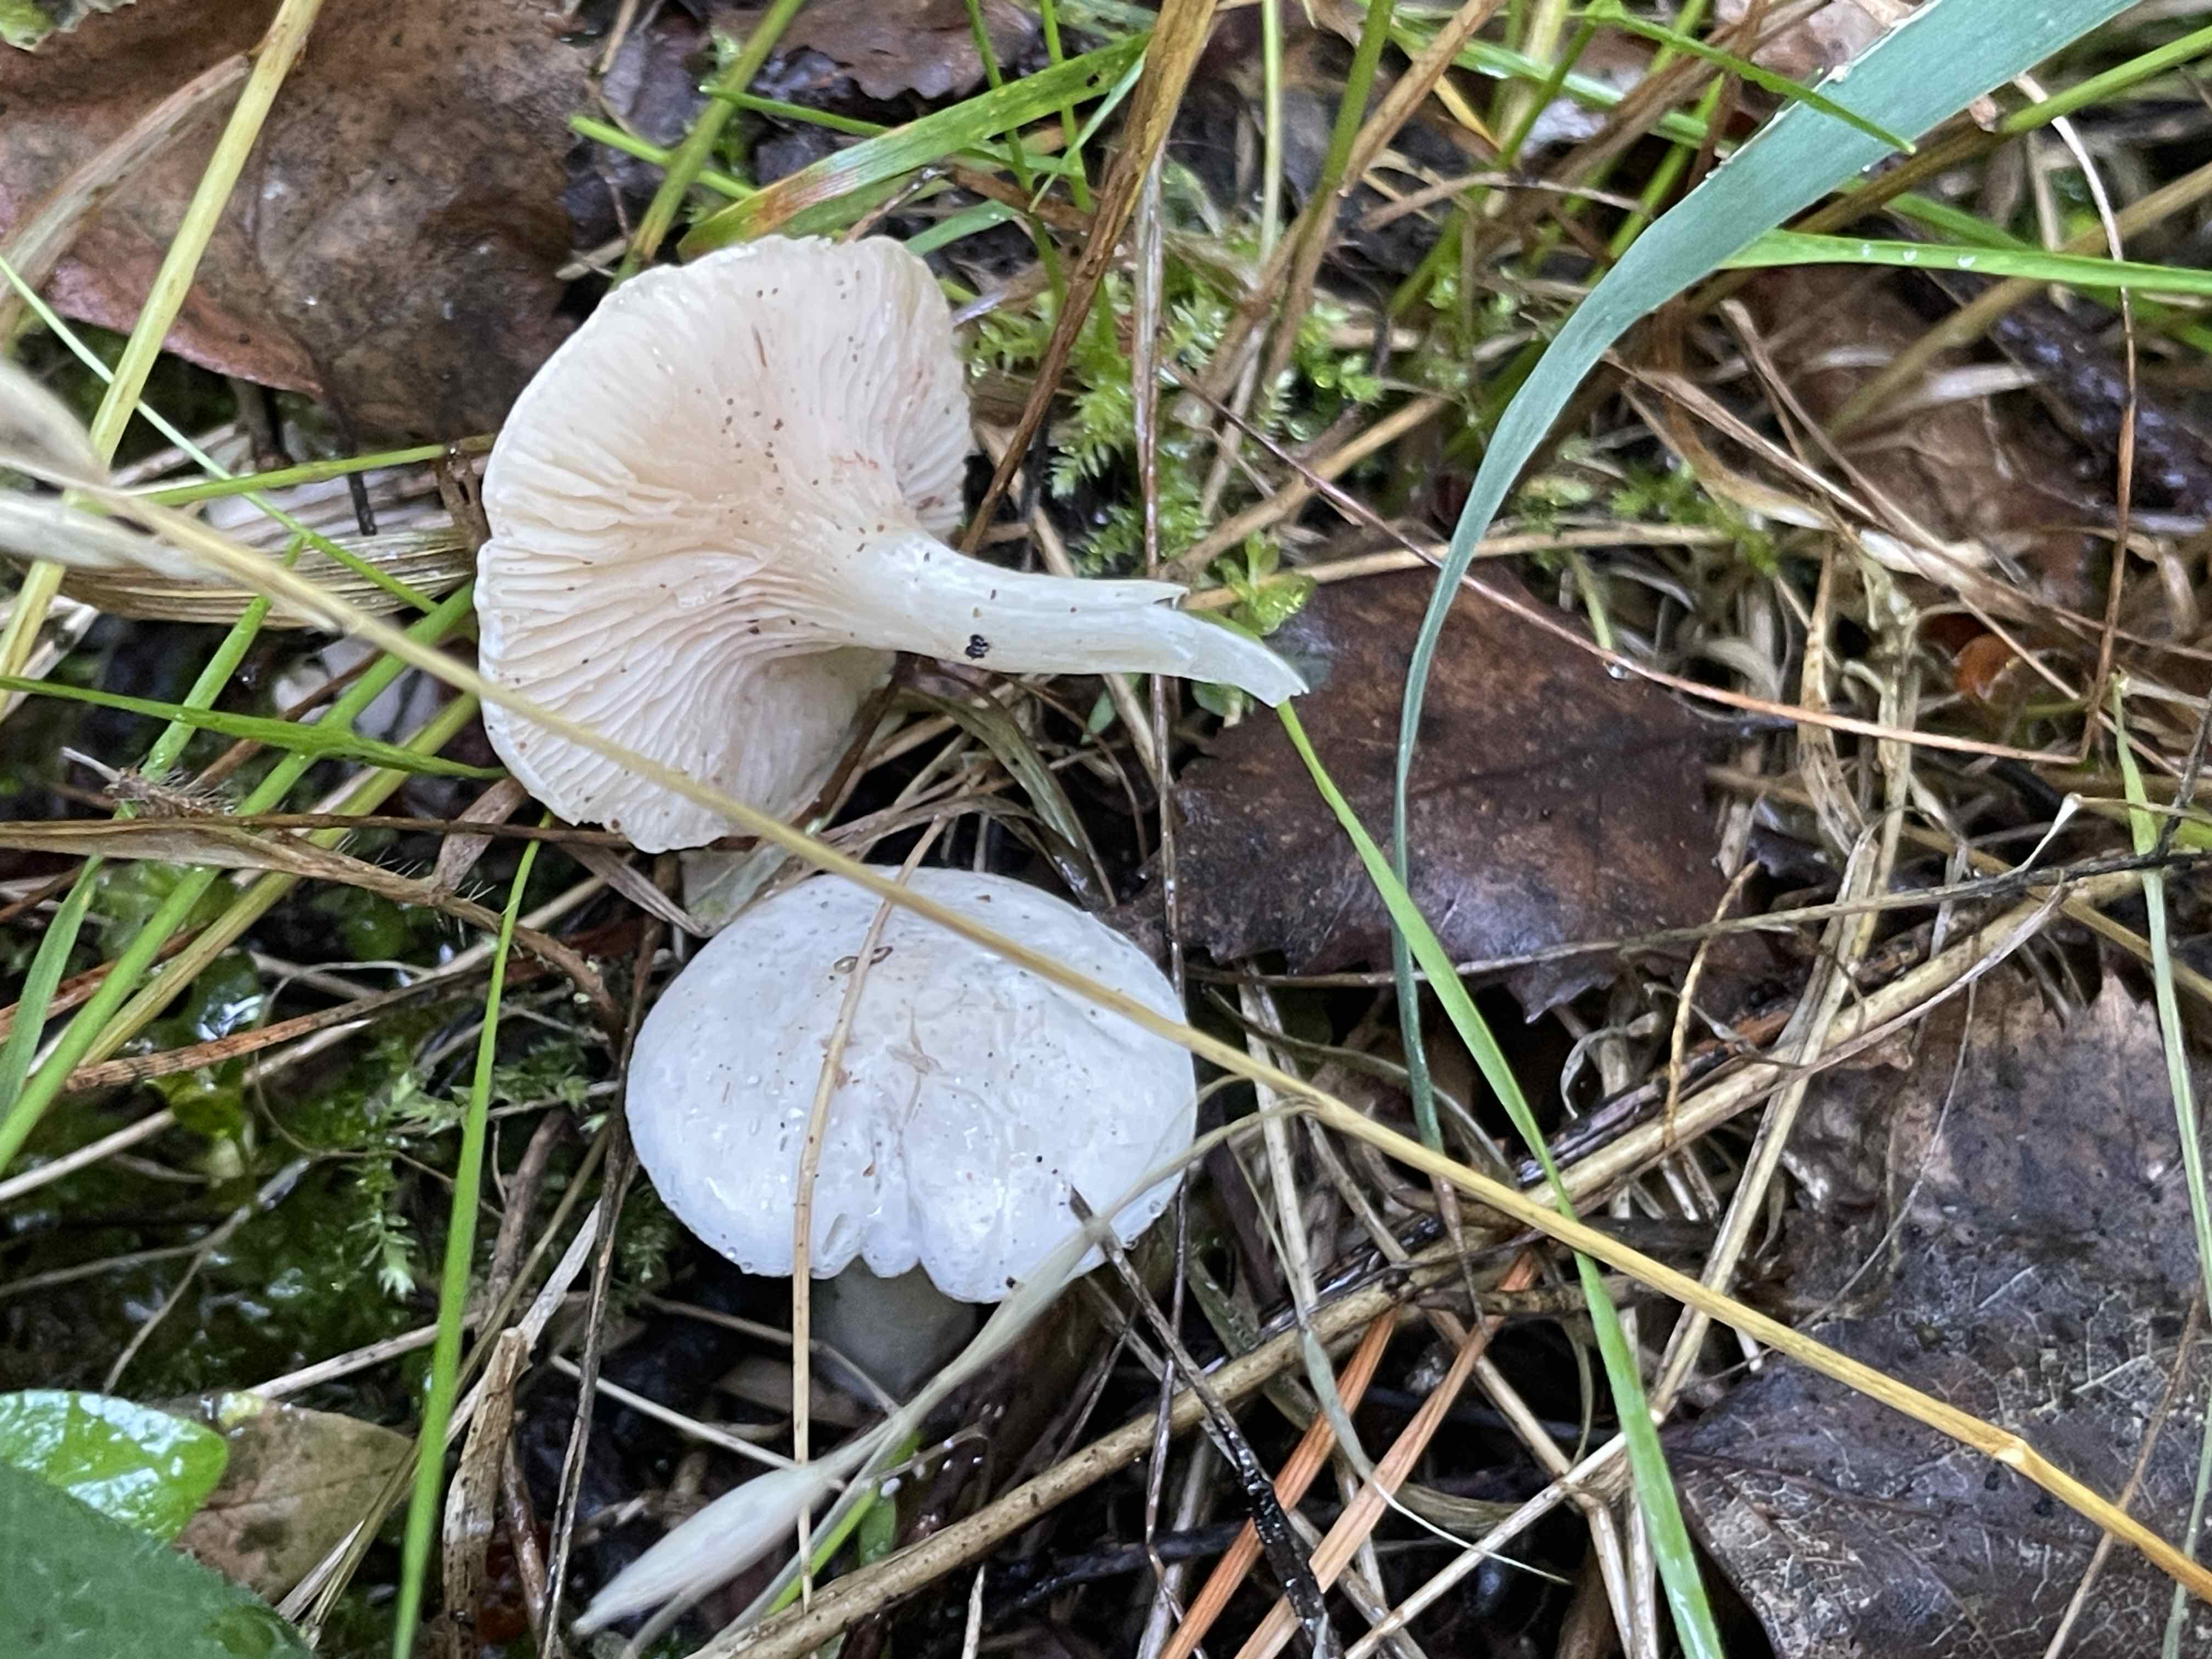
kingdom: Fungi
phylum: Basidiomycota
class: Agaricomycetes
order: Agaricales
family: Entolomataceae
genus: Clitopilus
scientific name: Clitopilus prunulus
